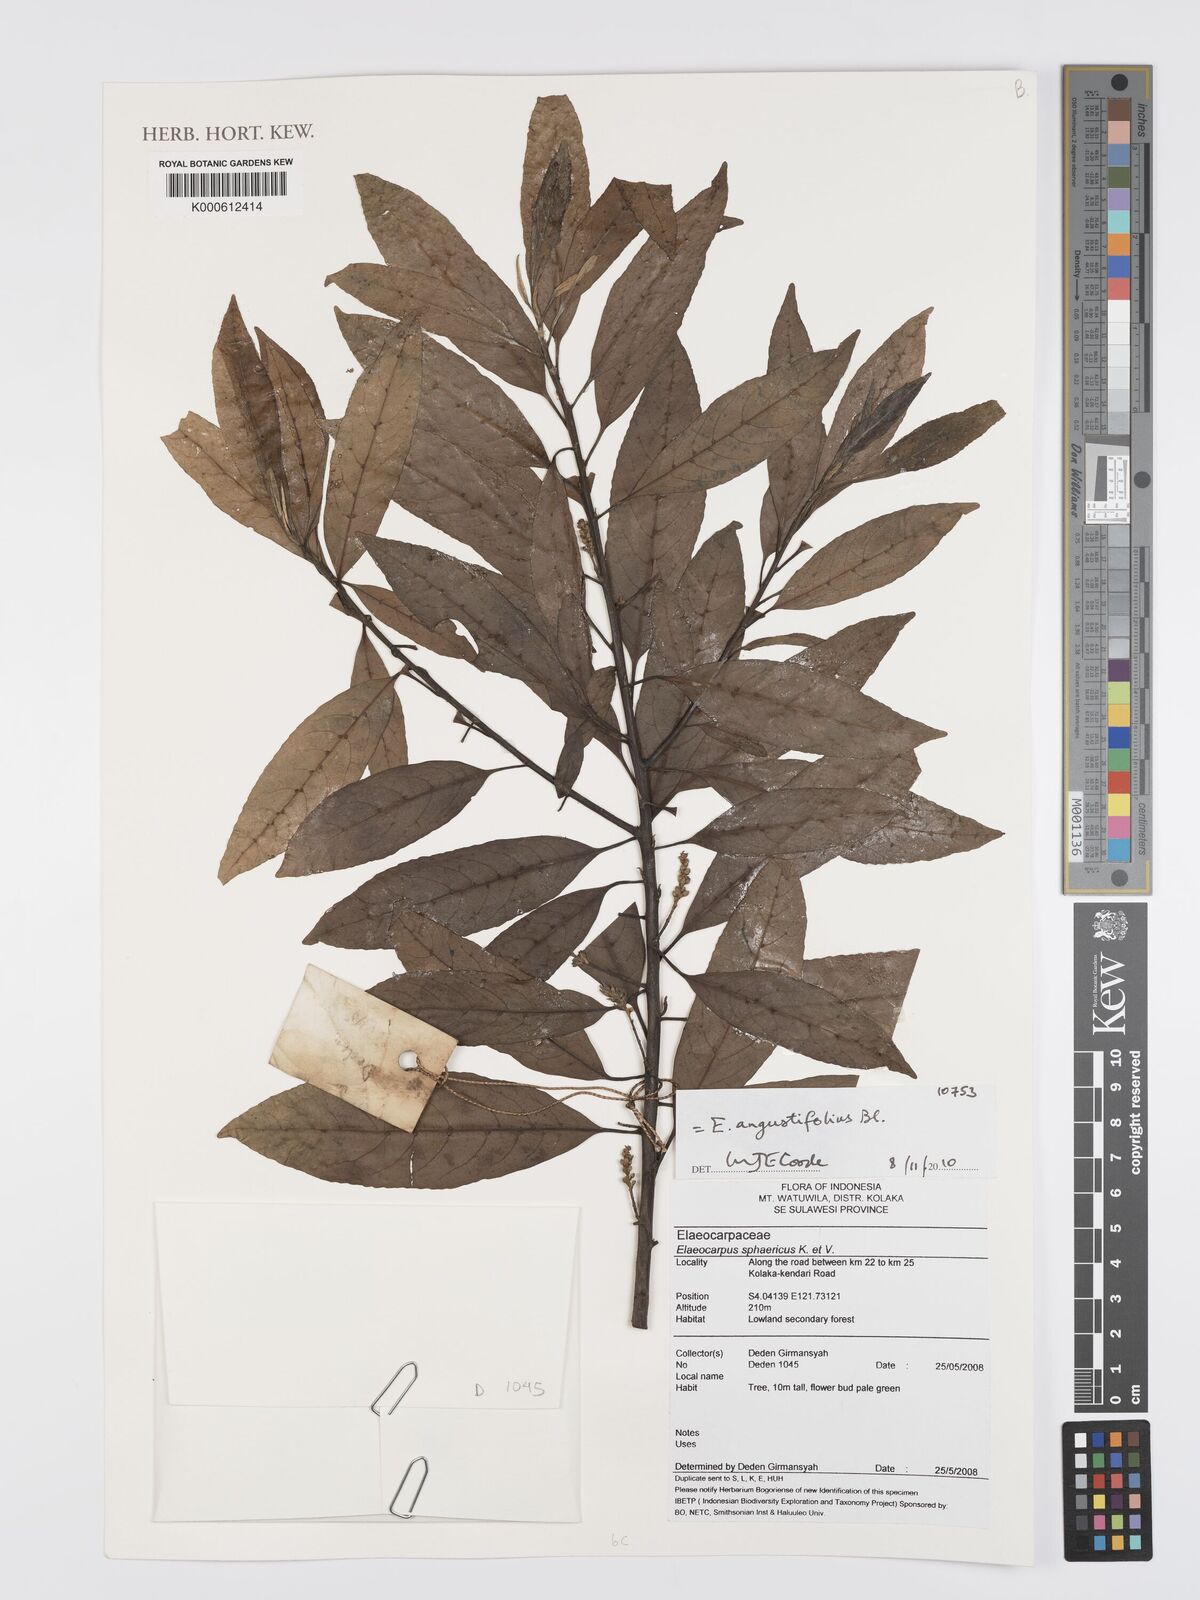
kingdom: Plantae
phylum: Tracheophyta
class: Magnoliopsida
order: Oxalidales
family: Elaeocarpaceae
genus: Elaeocarpus
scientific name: Elaeocarpus angustifolius
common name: Blue marble tree
